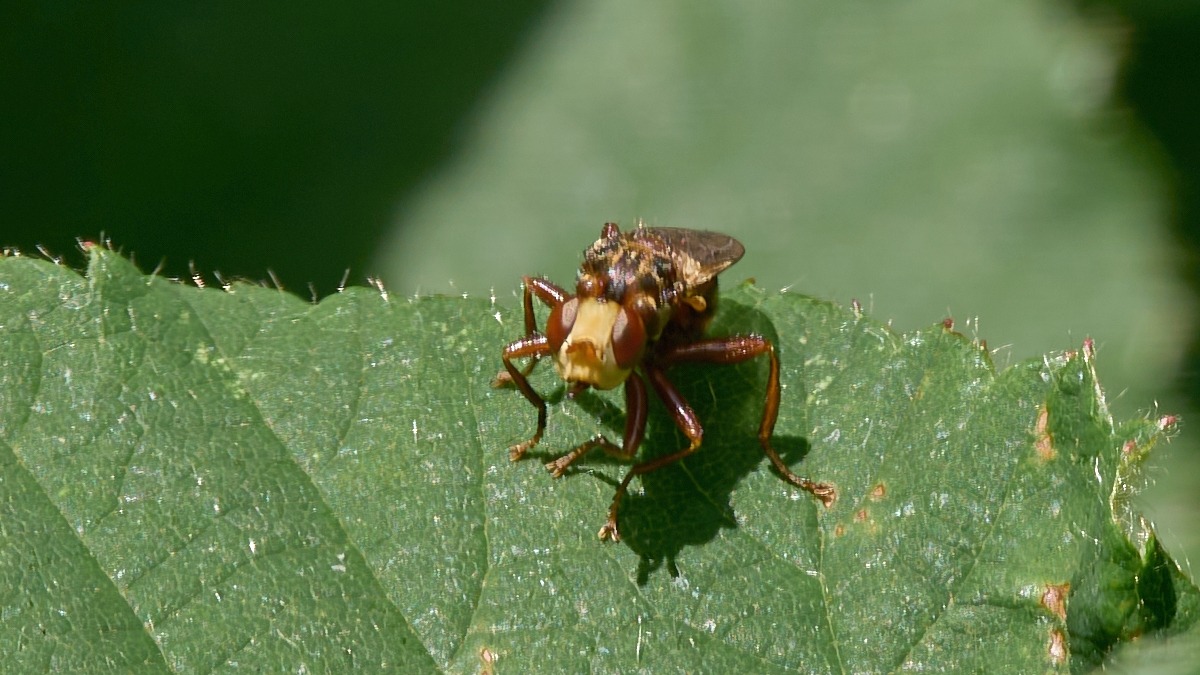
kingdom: Animalia
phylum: Arthropoda
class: Insecta
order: Diptera
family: Conopidae
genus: Sicus
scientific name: Sicus ferrugineus
